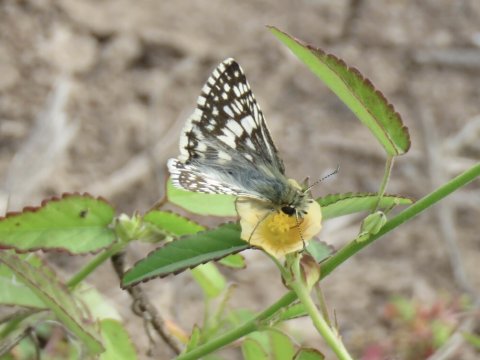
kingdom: Animalia
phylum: Arthropoda
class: Insecta
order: Lepidoptera
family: Hesperiidae
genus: Pyrgus
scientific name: Pyrgus communis
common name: White Checkered-Skipper
